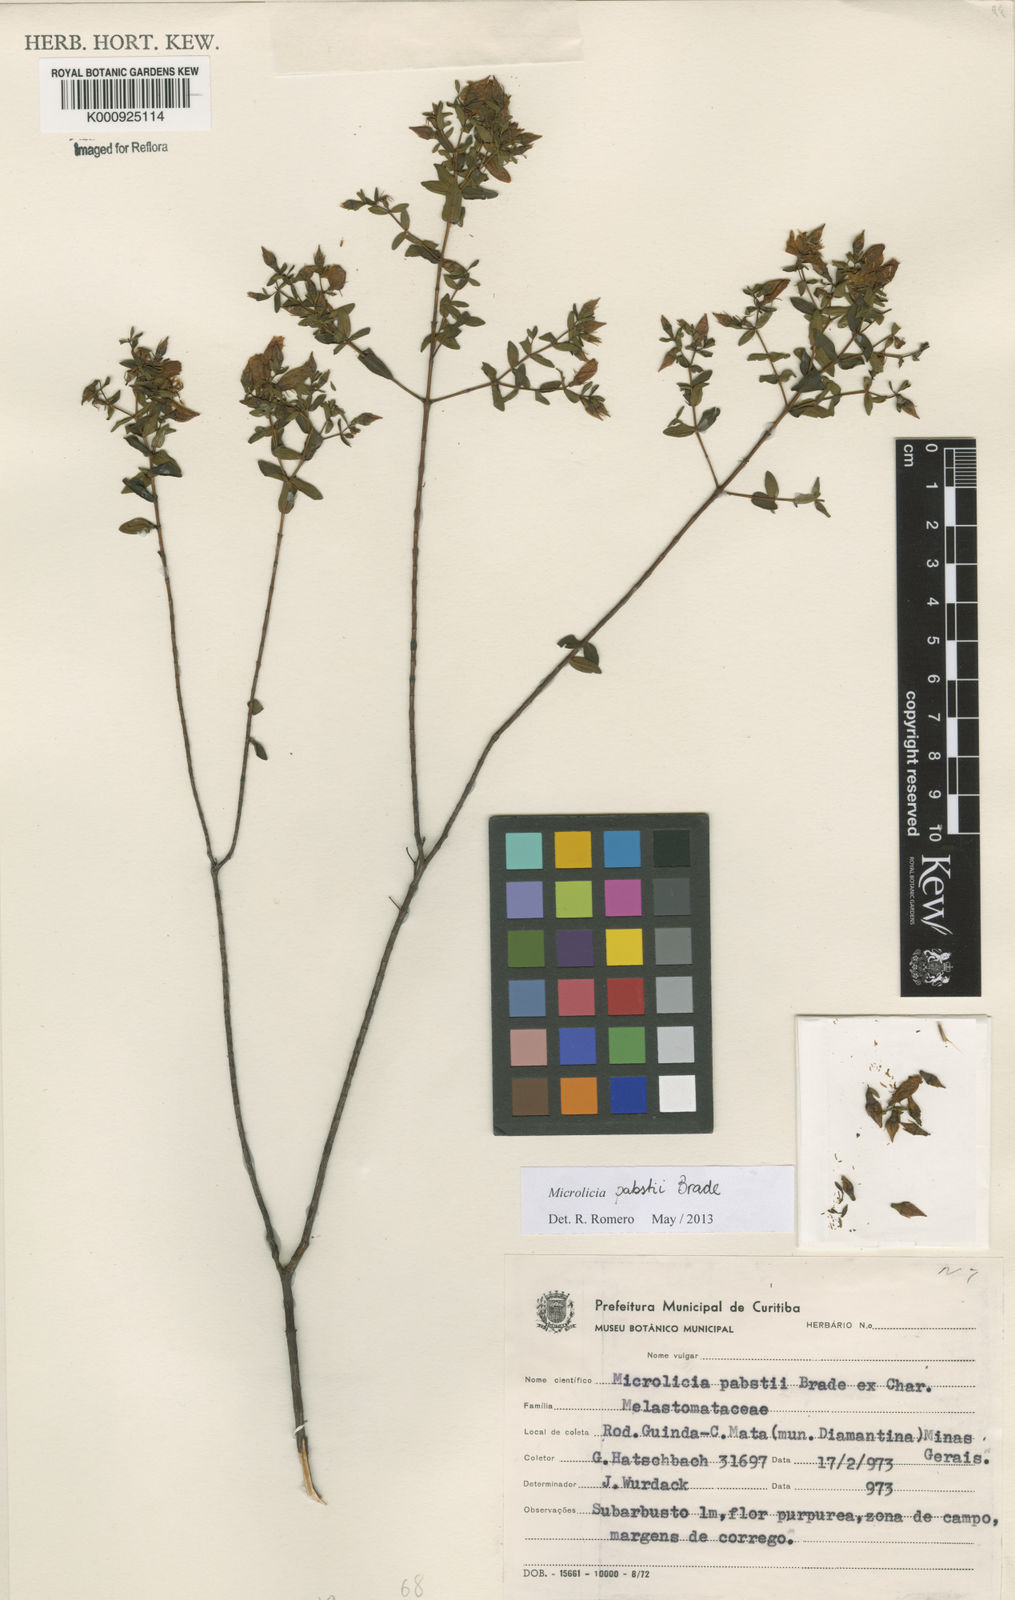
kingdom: Plantae
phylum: Tracheophyta
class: Magnoliopsida
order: Myrtales
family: Melastomataceae
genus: Microlicia
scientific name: Microlicia pabstii
